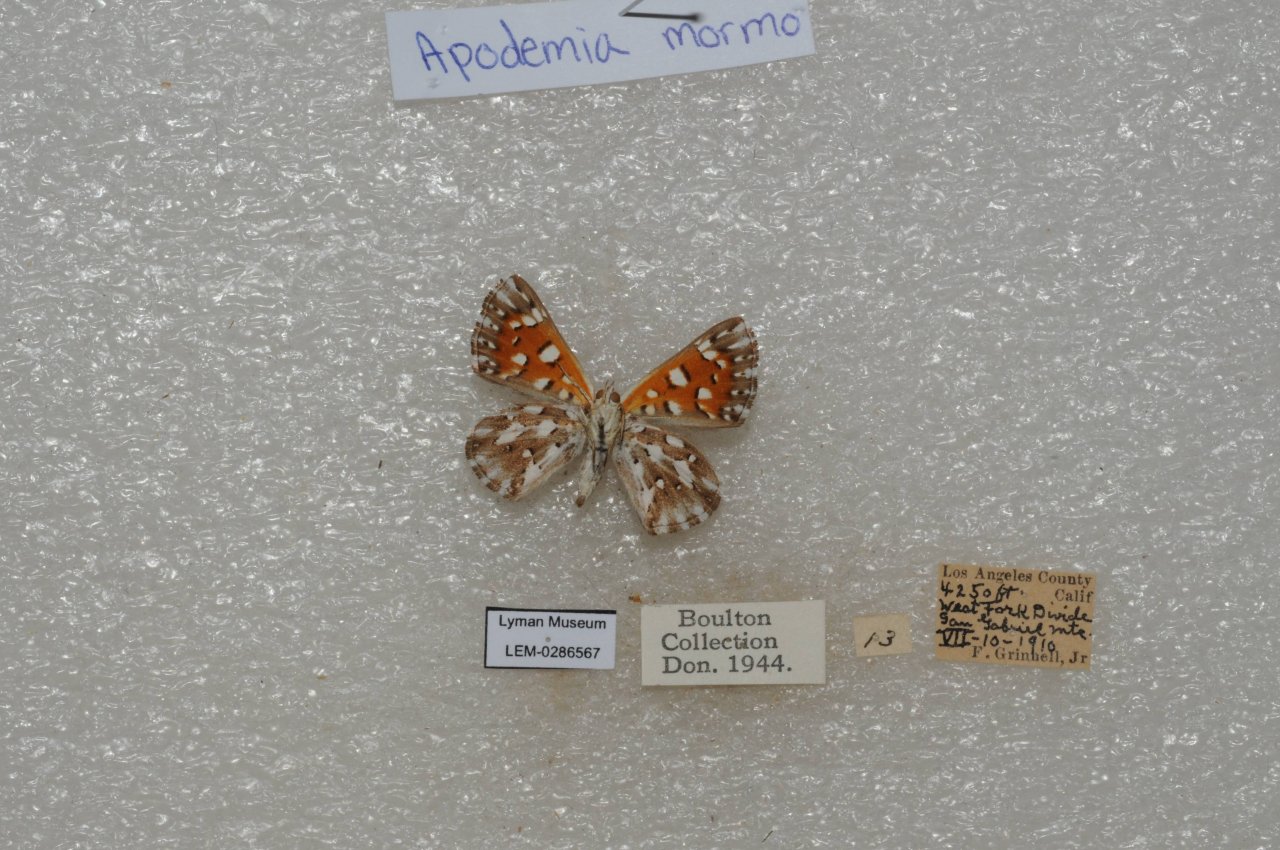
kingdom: Animalia
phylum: Arthropoda
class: Insecta
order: Lepidoptera
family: Riodinidae
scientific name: Riodinidae
